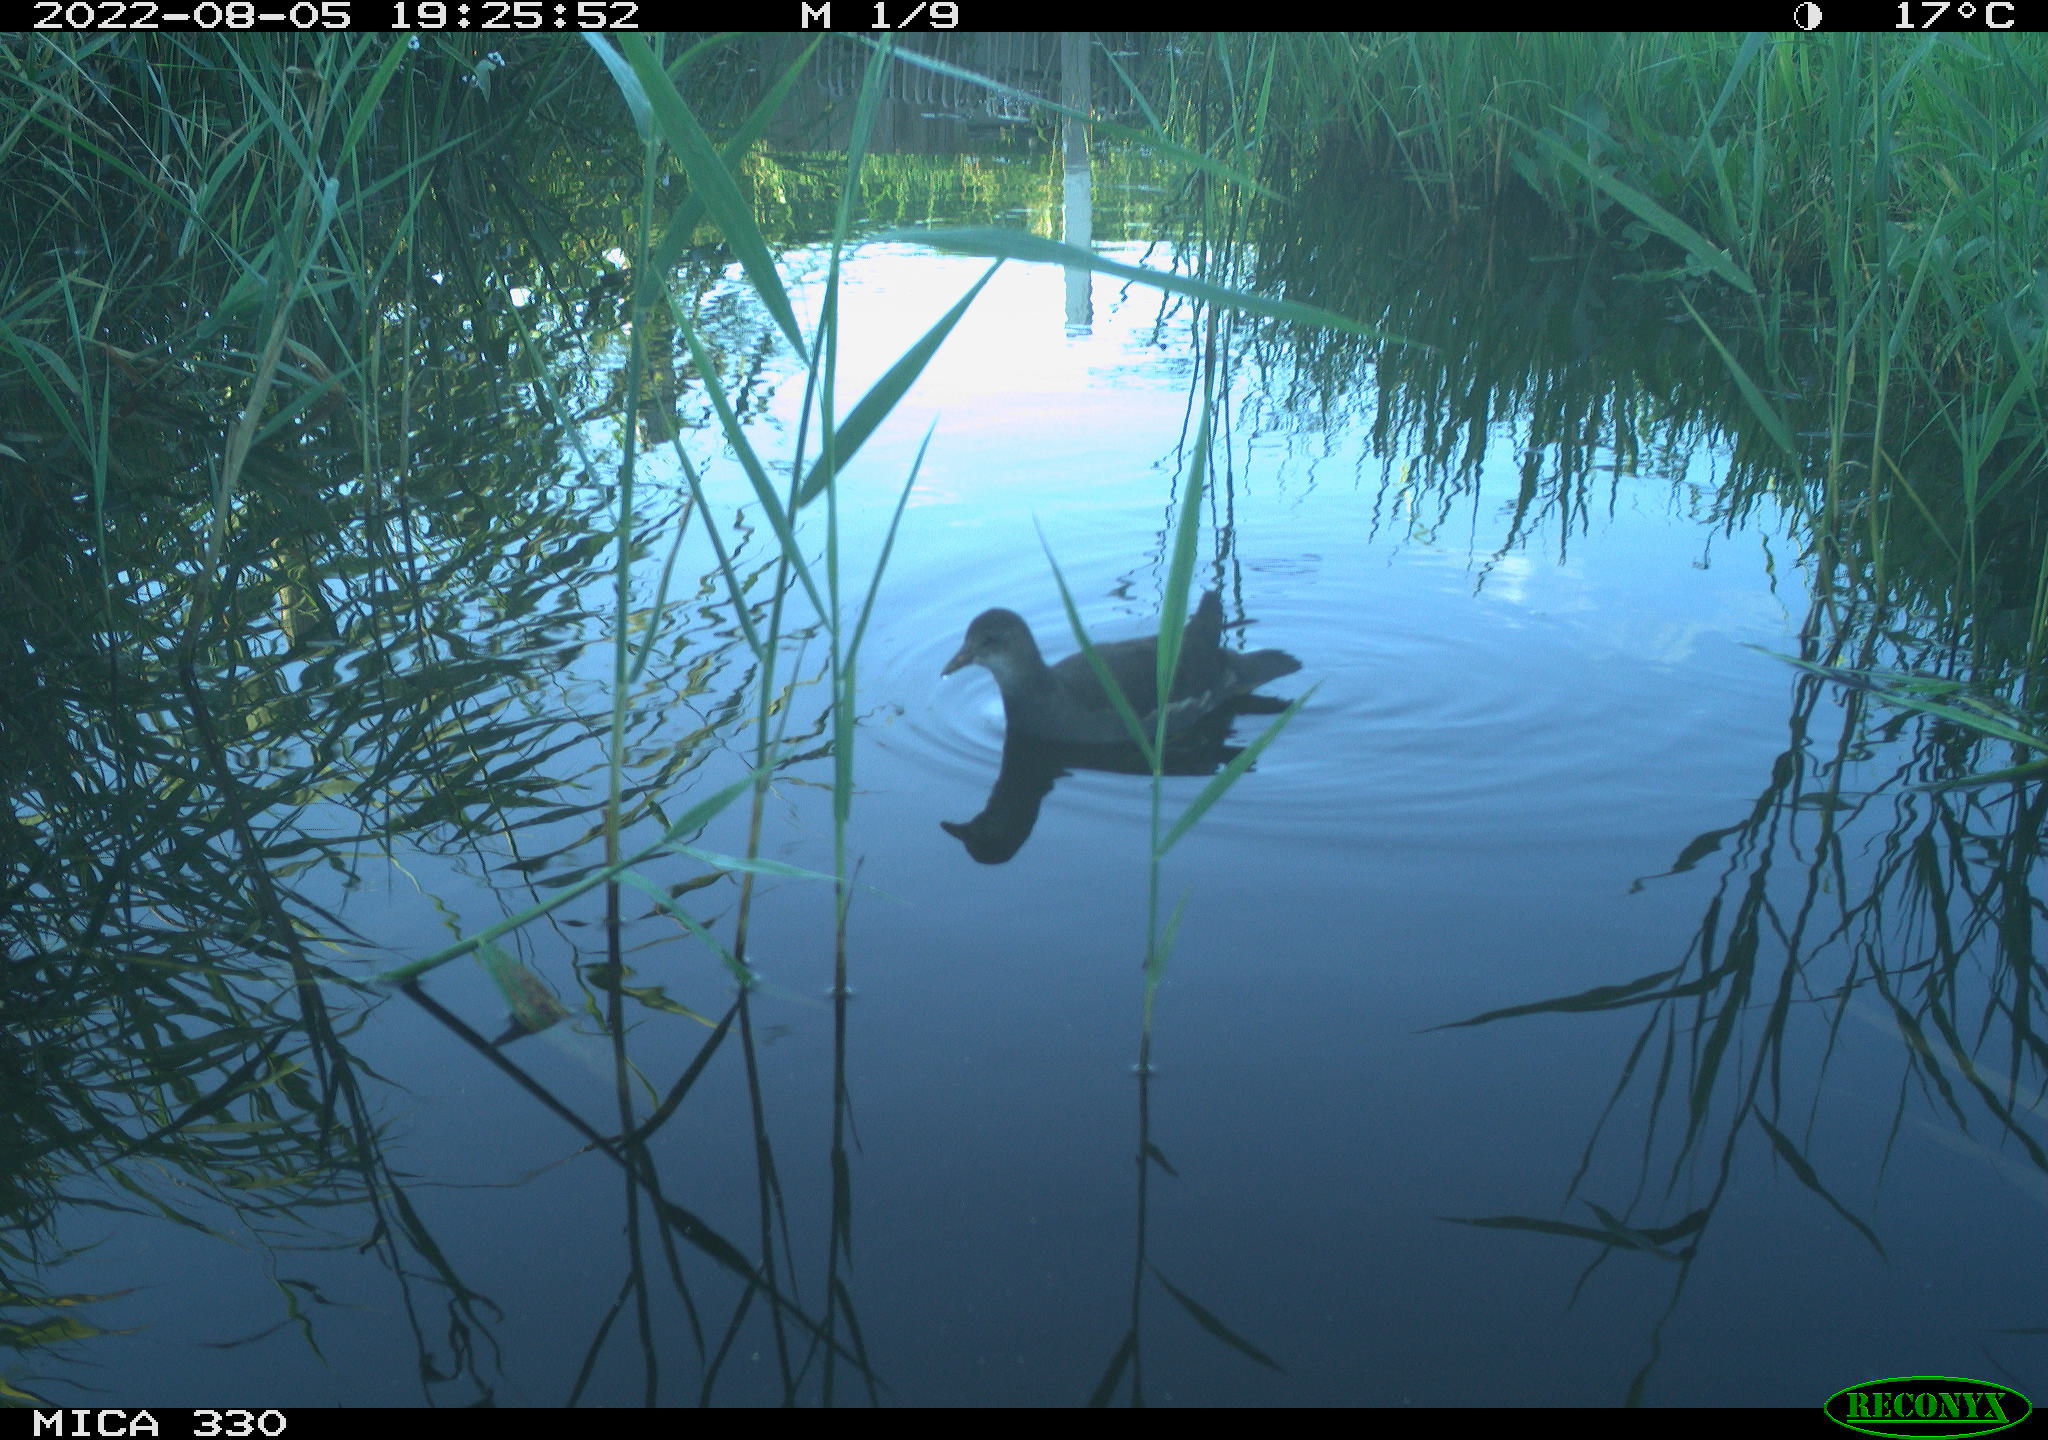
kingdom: Animalia
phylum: Chordata
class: Aves
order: Gruiformes
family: Rallidae
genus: Gallinula
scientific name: Gallinula chloropus
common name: Common moorhen
